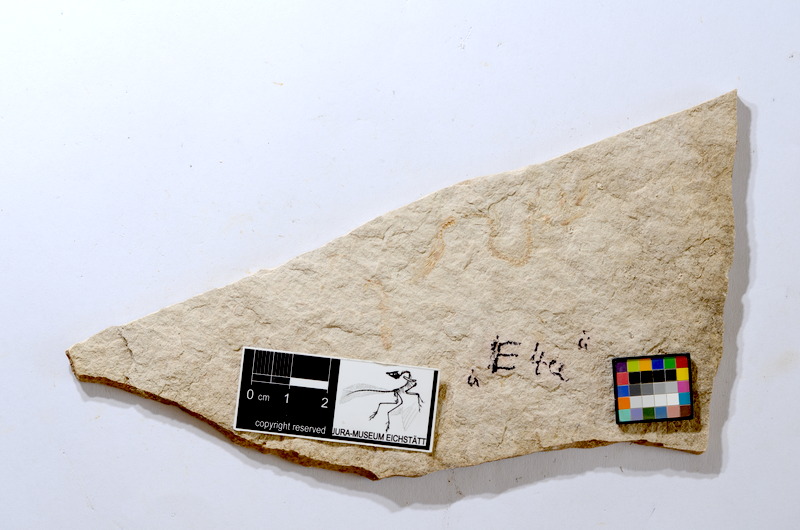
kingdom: Animalia
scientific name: Animalia
